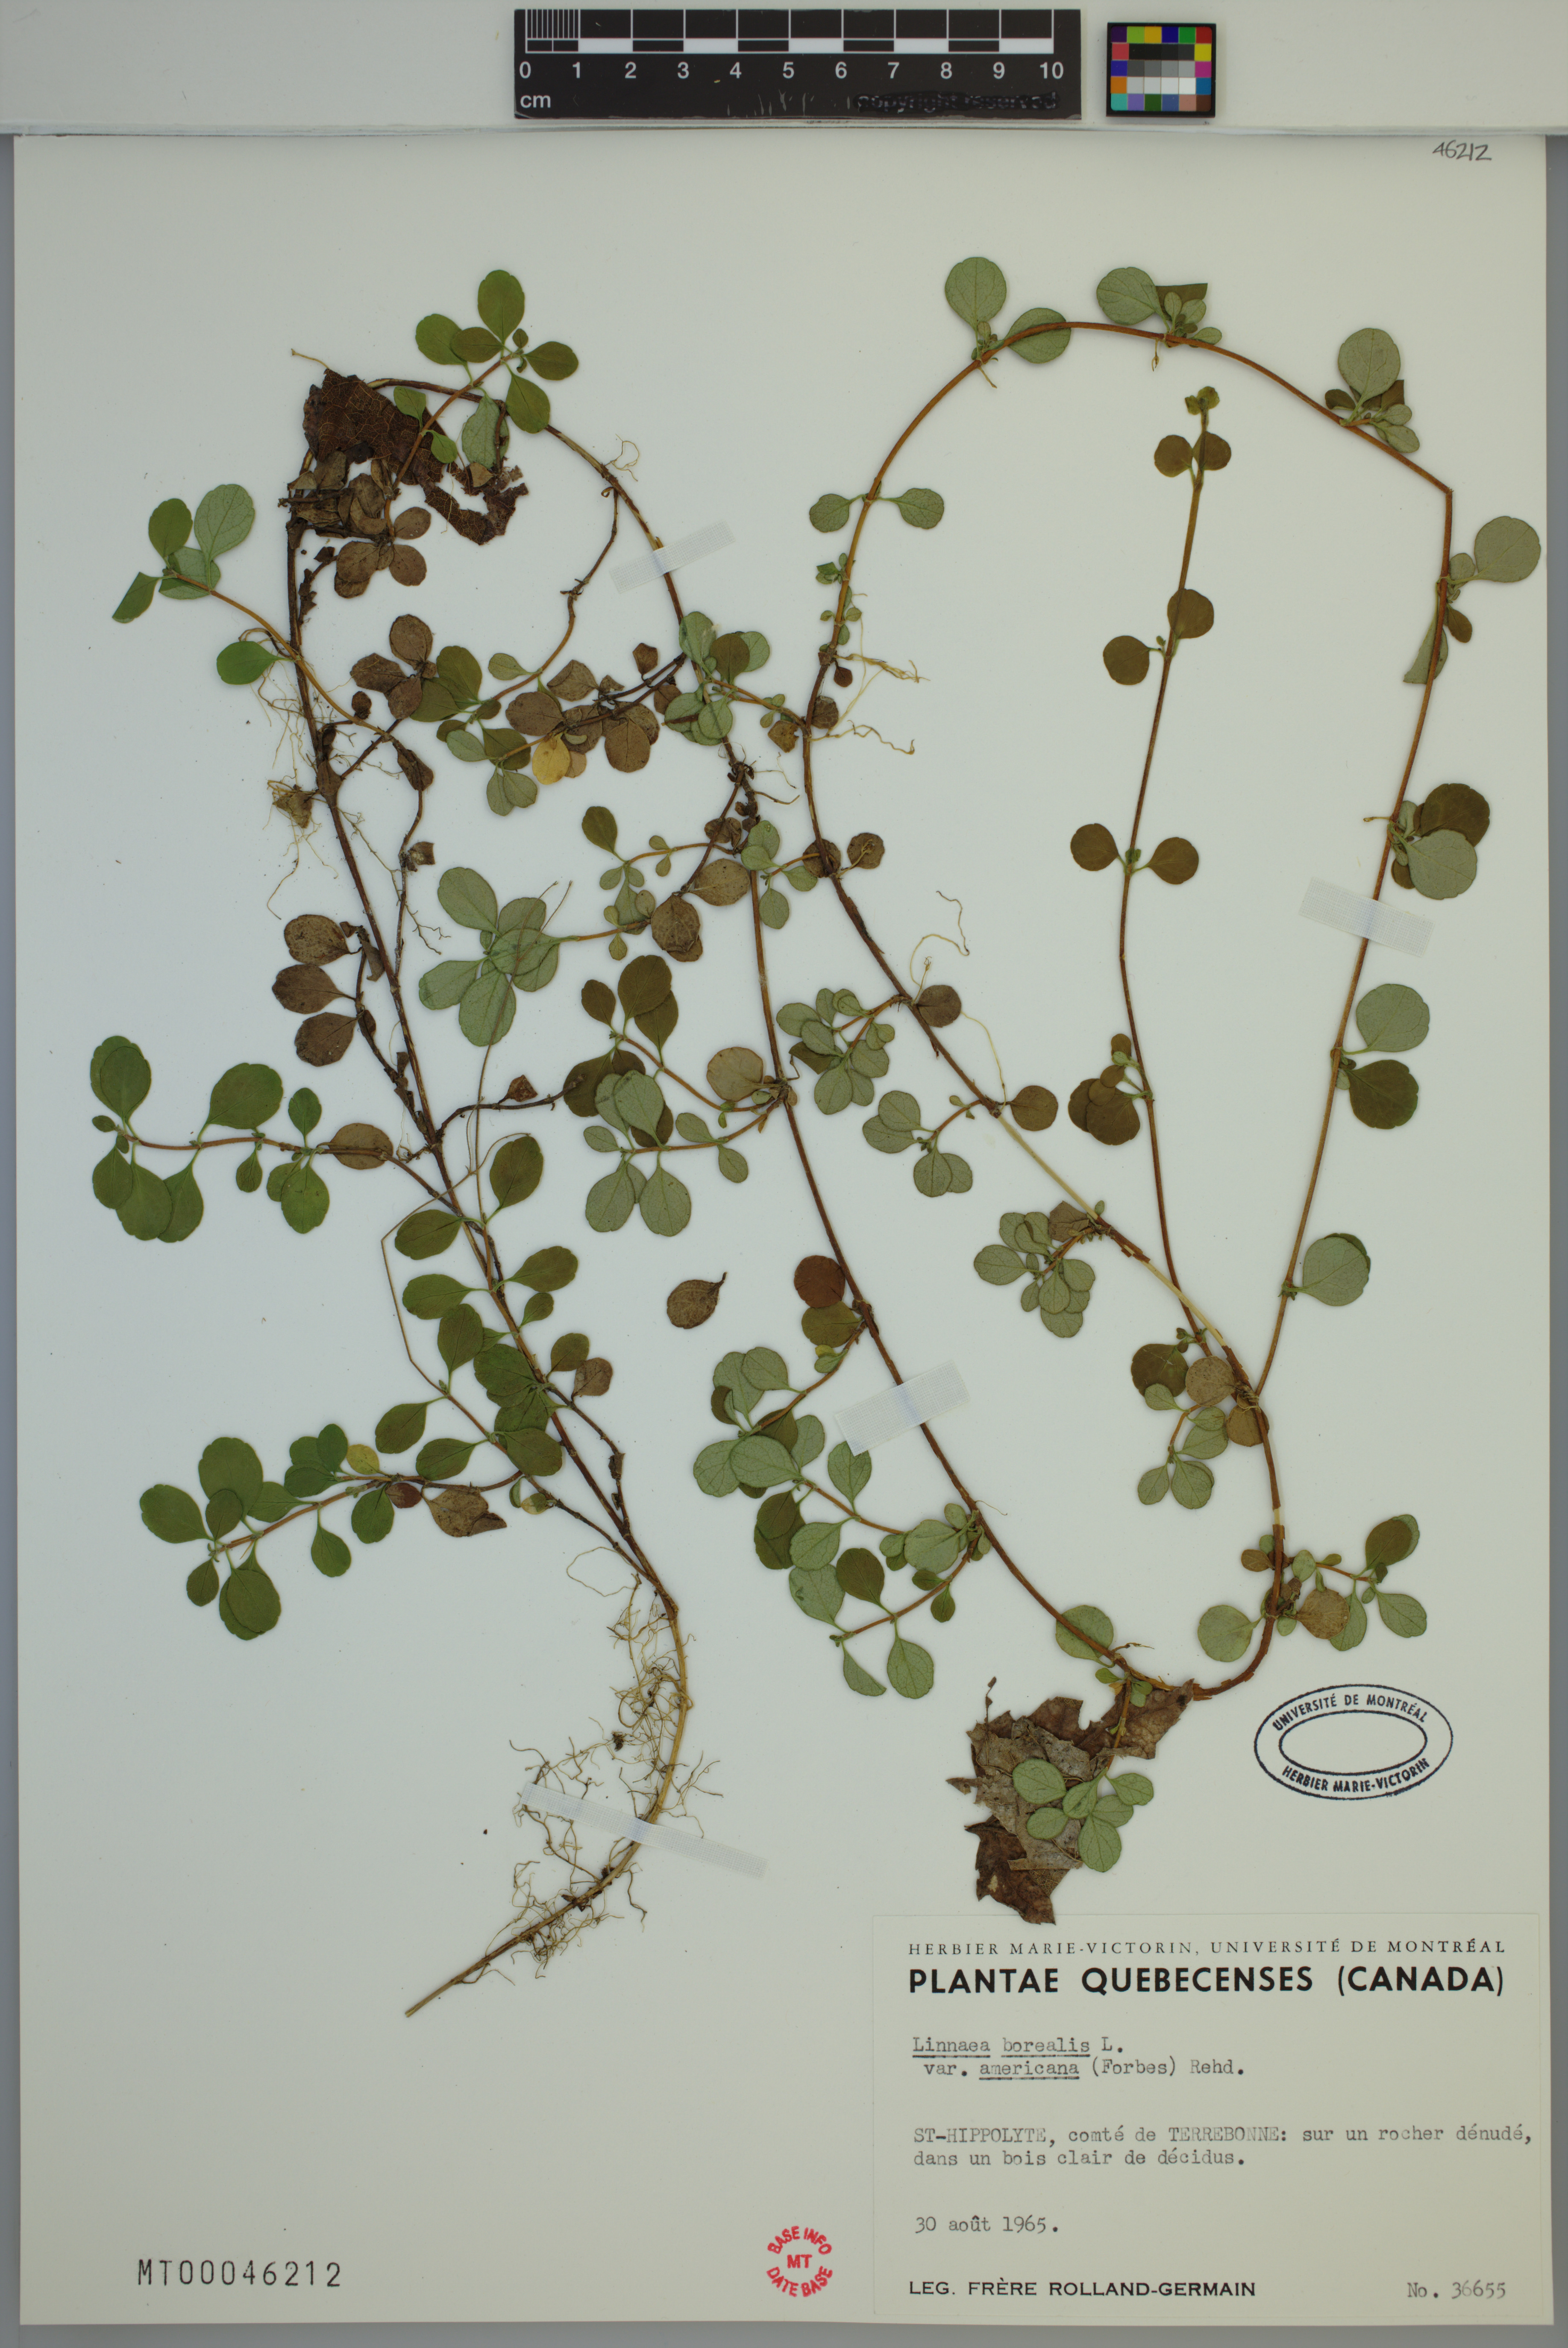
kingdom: Plantae
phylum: Tracheophyta
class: Magnoliopsida
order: Dipsacales
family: Caprifoliaceae
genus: Linnaea
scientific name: Linnaea borealis
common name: Twinflower
